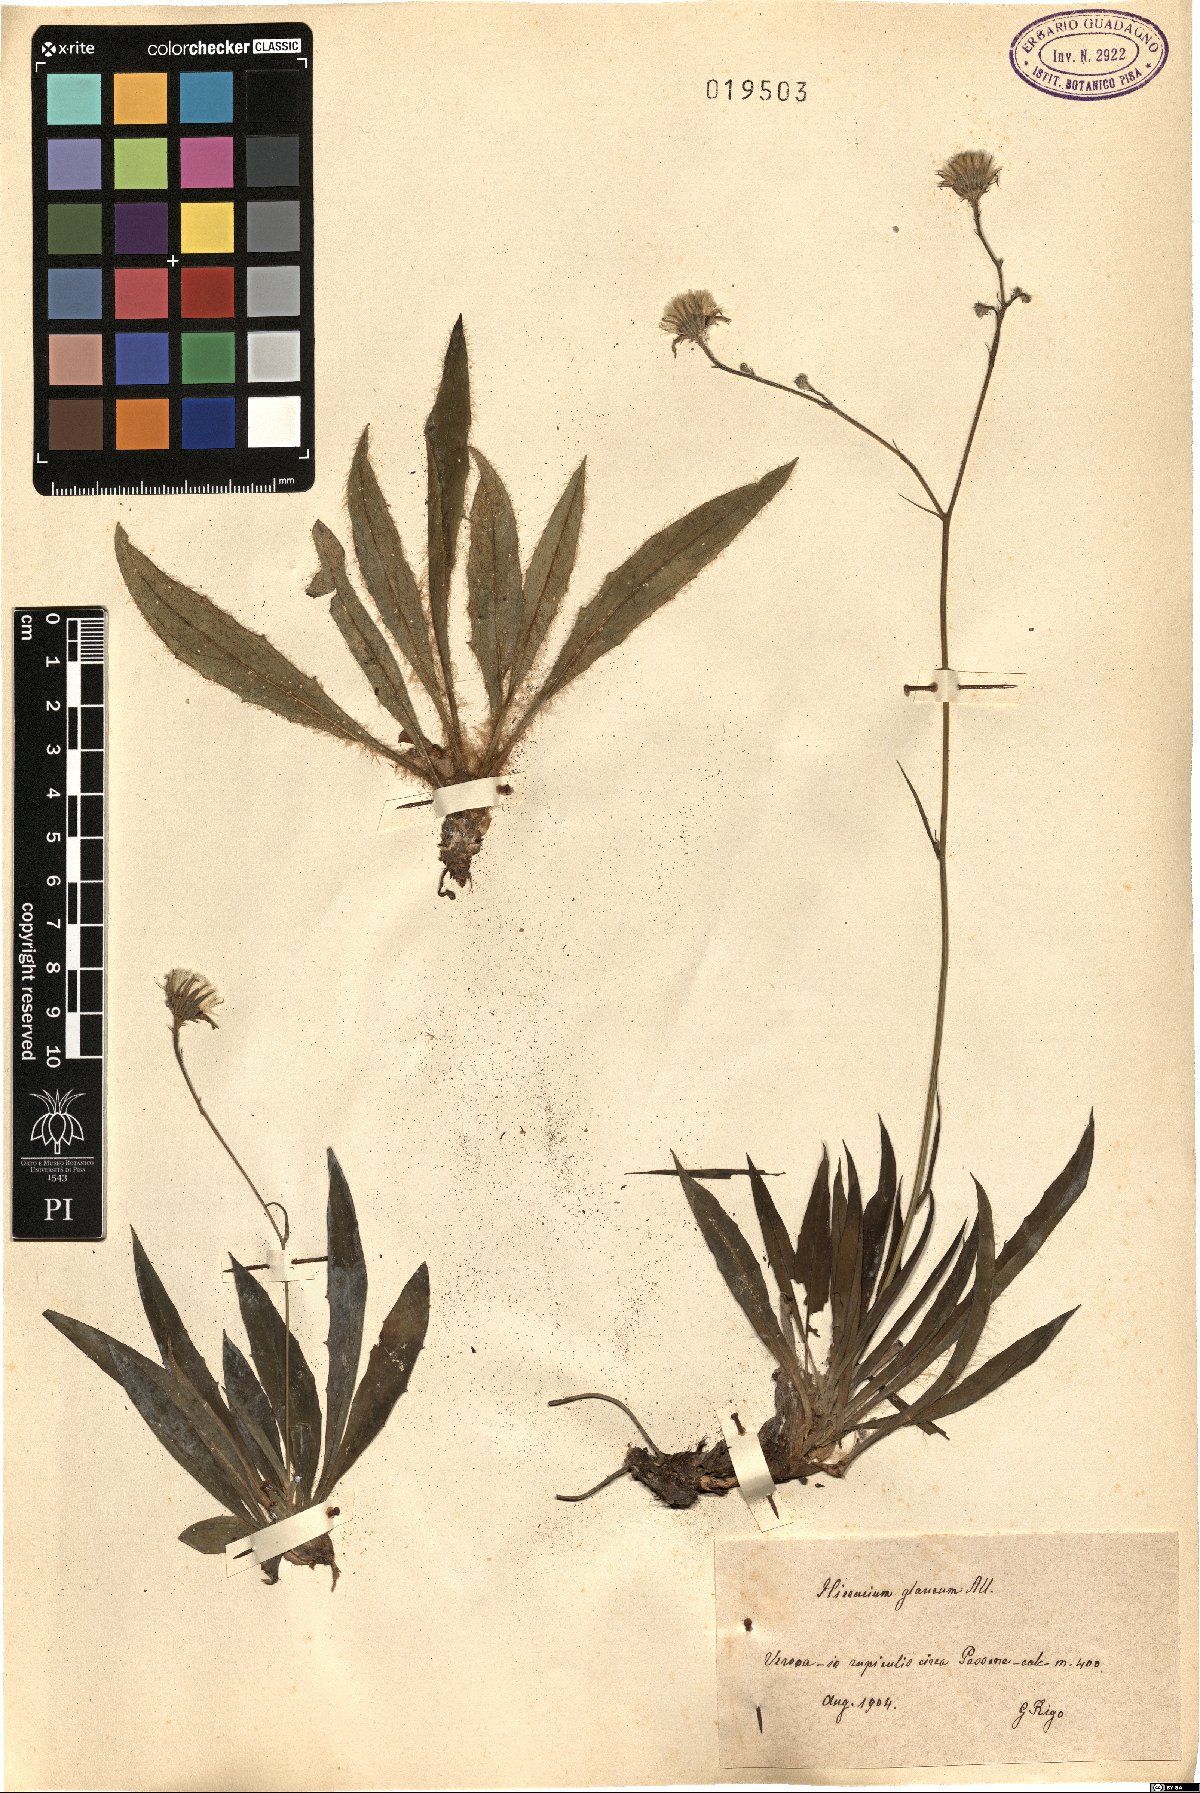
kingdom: Plantae
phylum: Tracheophyta
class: Magnoliopsida
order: Asterales
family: Asteraceae
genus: Hieracium
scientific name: Hieracium glaucum
